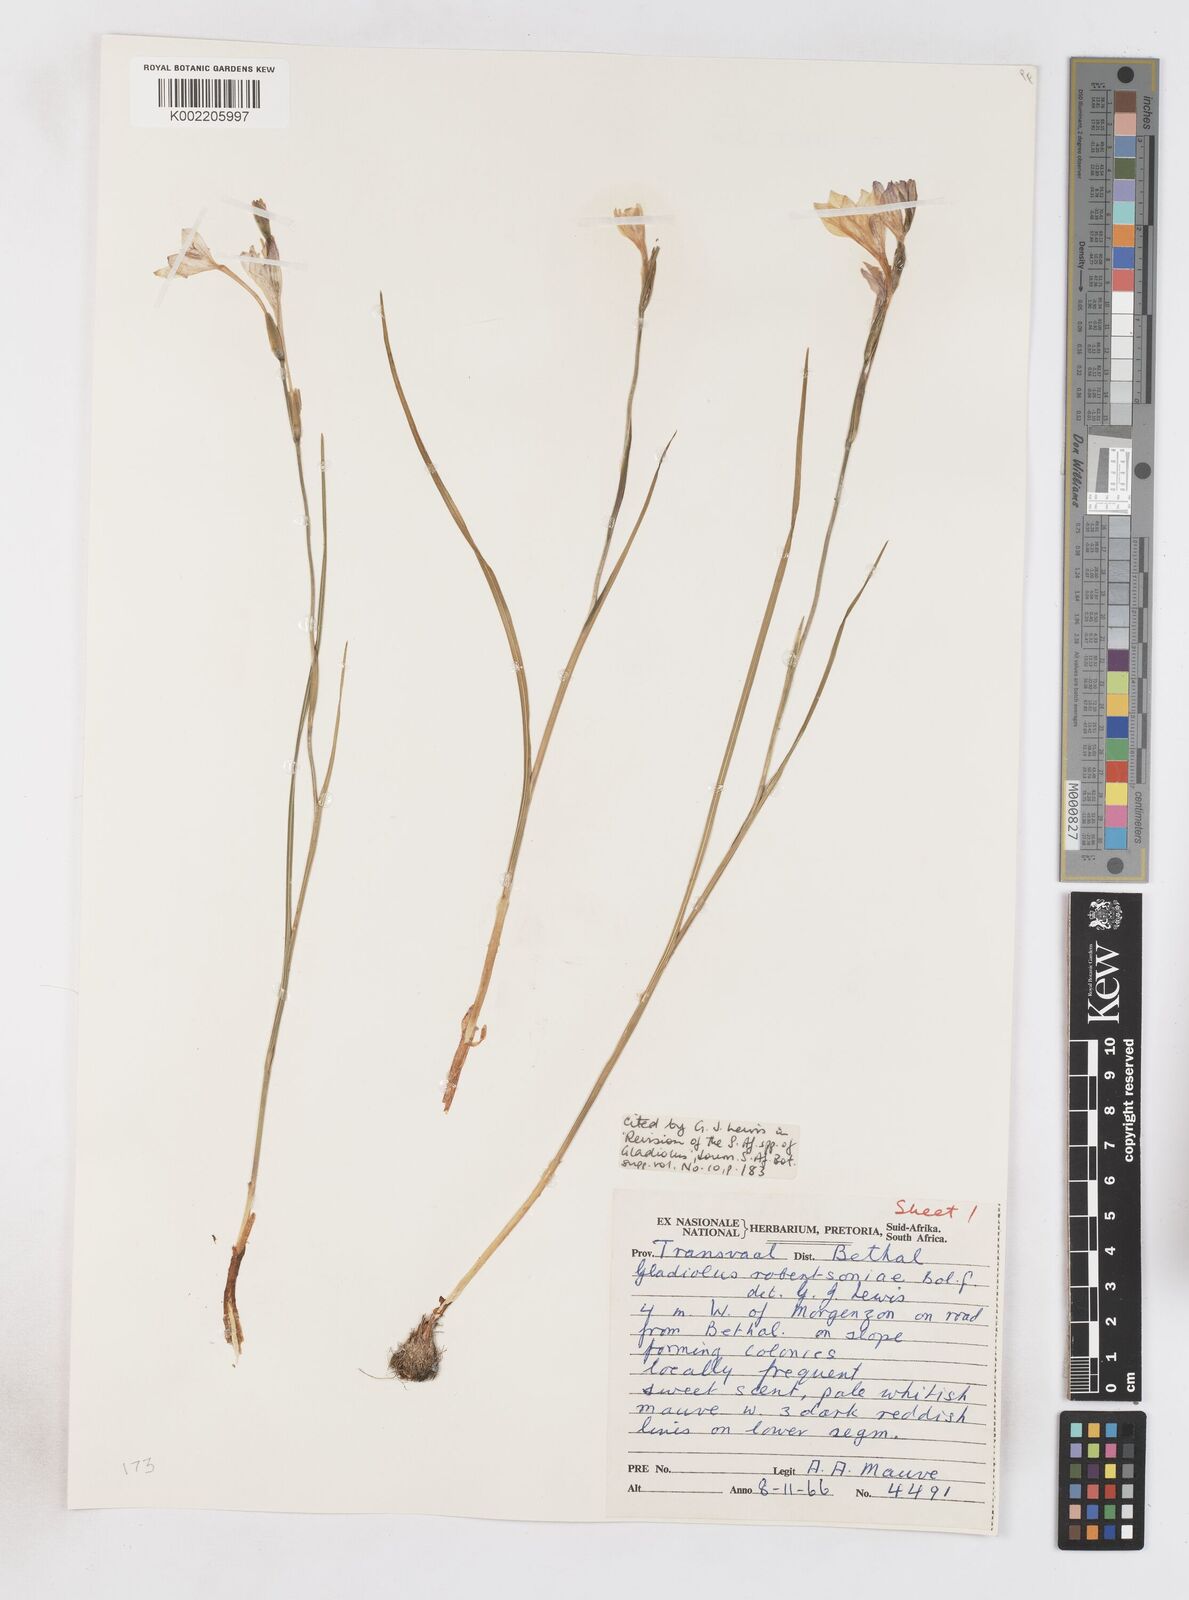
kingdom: Plantae
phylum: Tracheophyta
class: Liliopsida
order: Asparagales
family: Iridaceae
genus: Gladiolus
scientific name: Gladiolus robertsoniae
